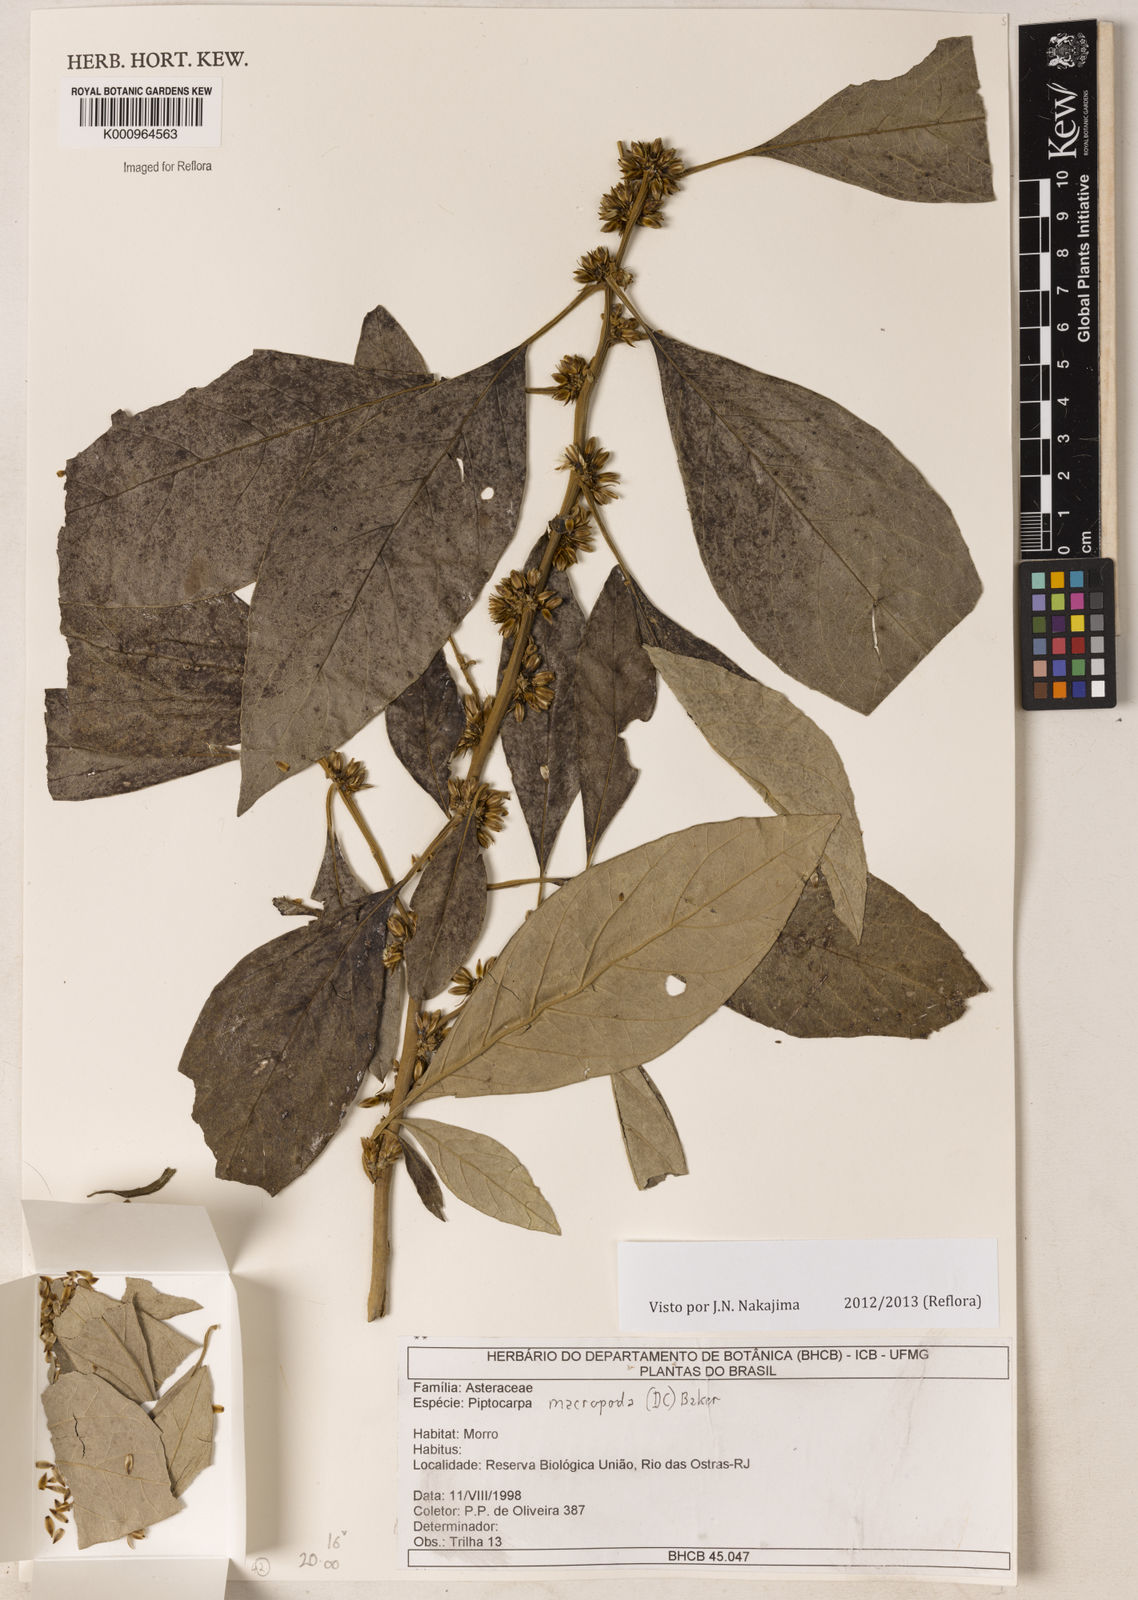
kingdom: Plantae
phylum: Tracheophyta
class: Magnoliopsida
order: Asterales
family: Asteraceae
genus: Piptocarpha
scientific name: Piptocarpha macropoda
